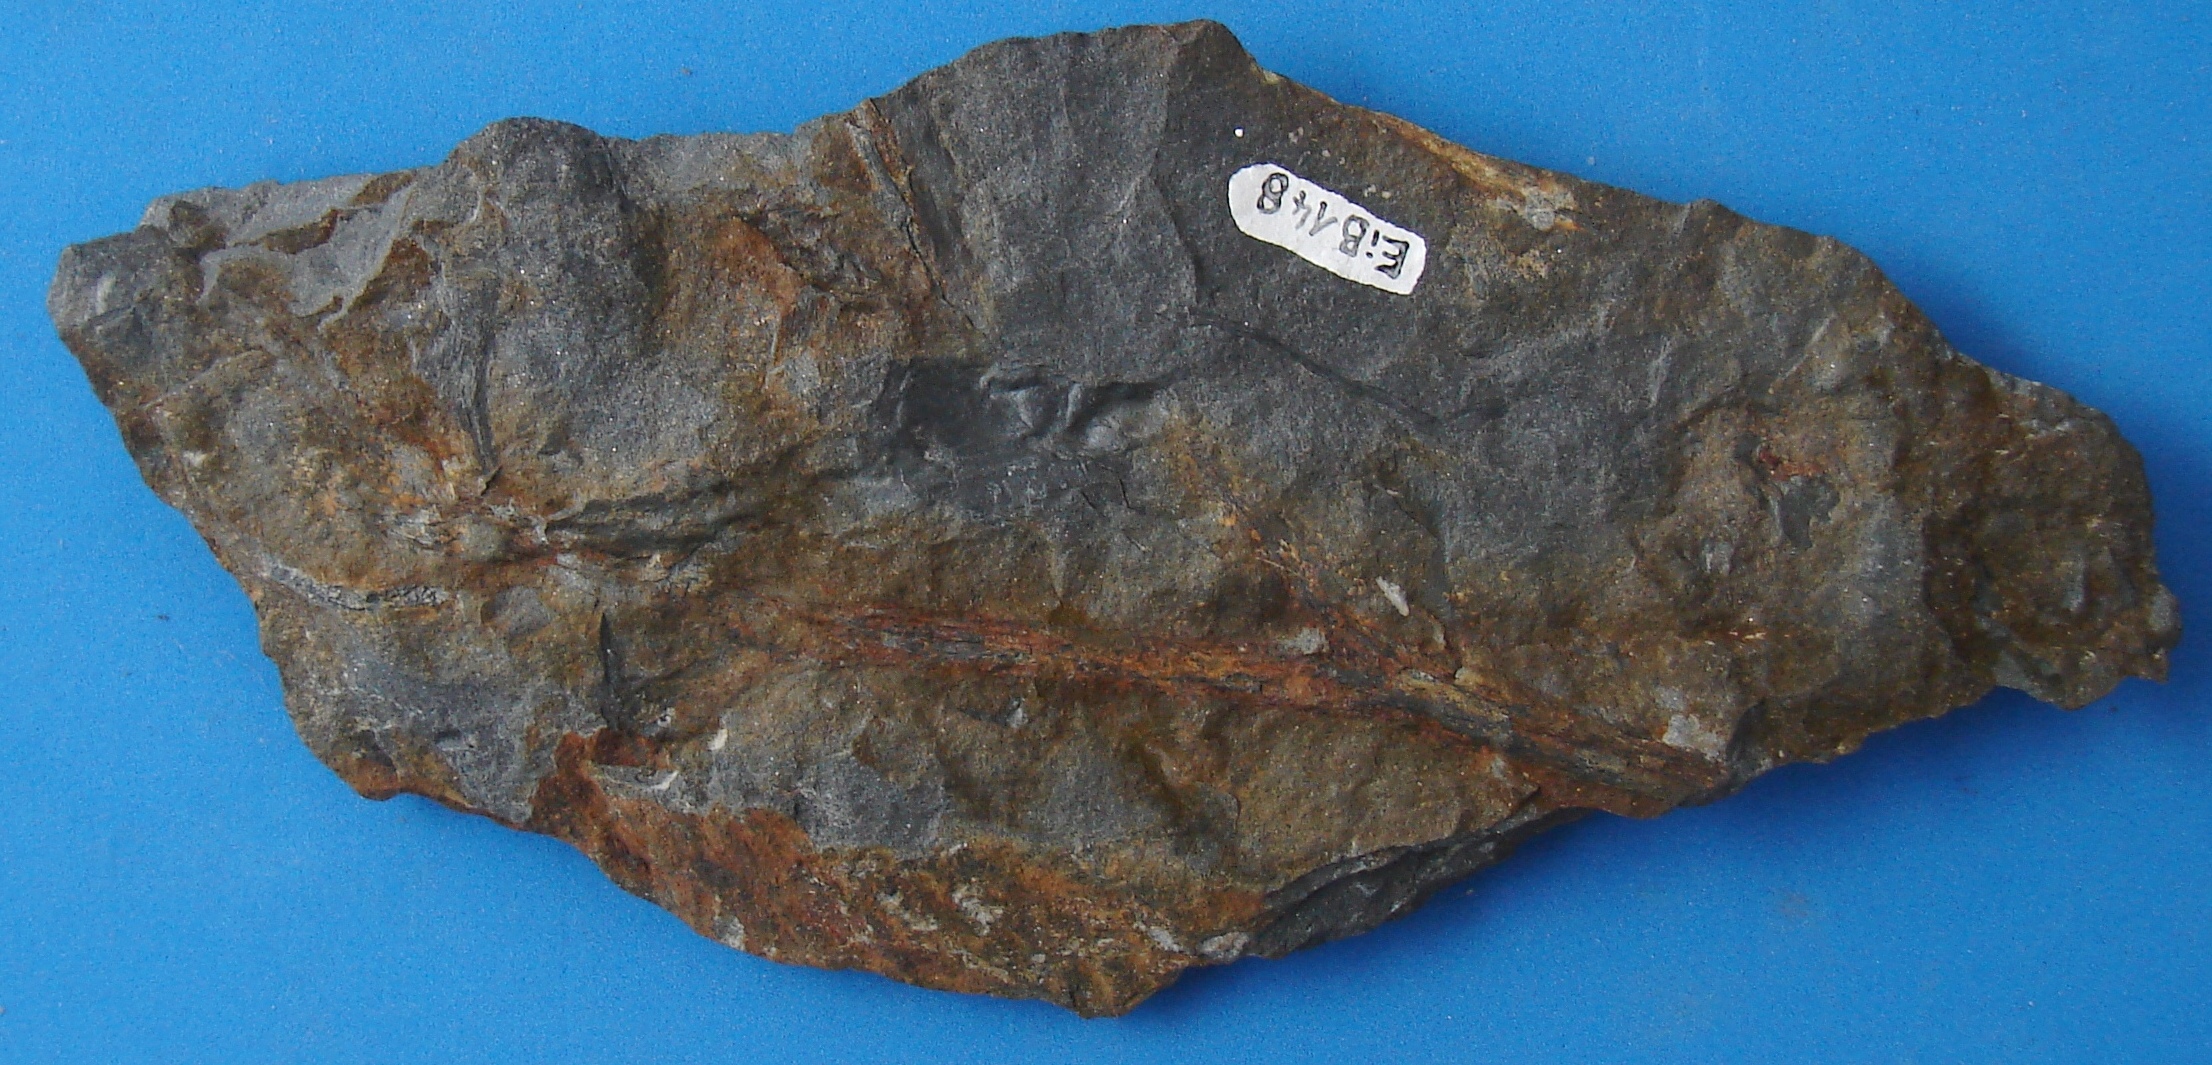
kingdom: Animalia
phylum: Chordata
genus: Pterygotus
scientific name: Pterygotus
